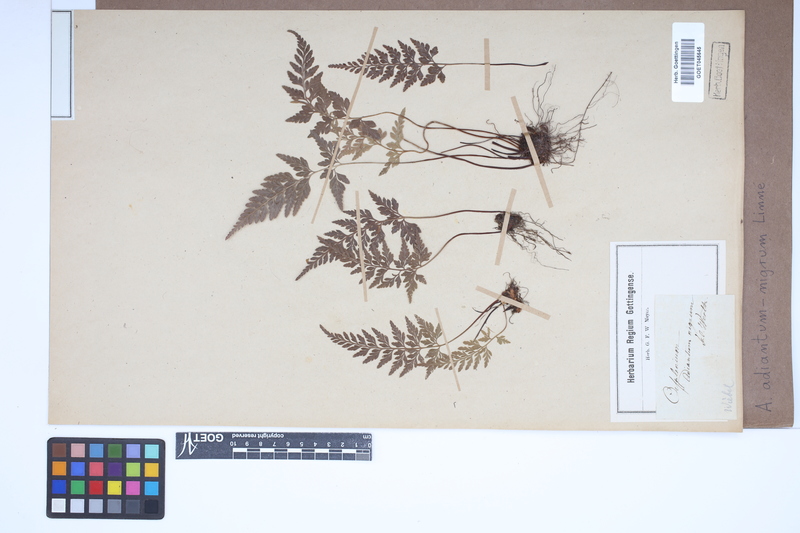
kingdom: Plantae
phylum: Tracheophyta
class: Polypodiopsida
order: Polypodiales
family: Aspleniaceae
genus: Asplenium
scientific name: Asplenium adiantum-nigrum
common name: Black spleenwort
